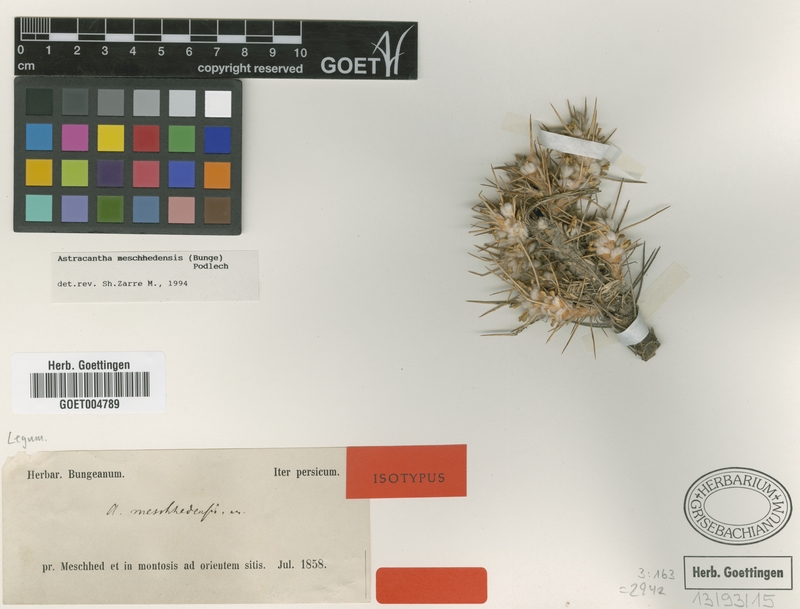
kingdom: Plantae
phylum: Tracheophyta
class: Magnoliopsida
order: Fabales
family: Fabaceae
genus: Astragalus
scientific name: Astragalus verus
